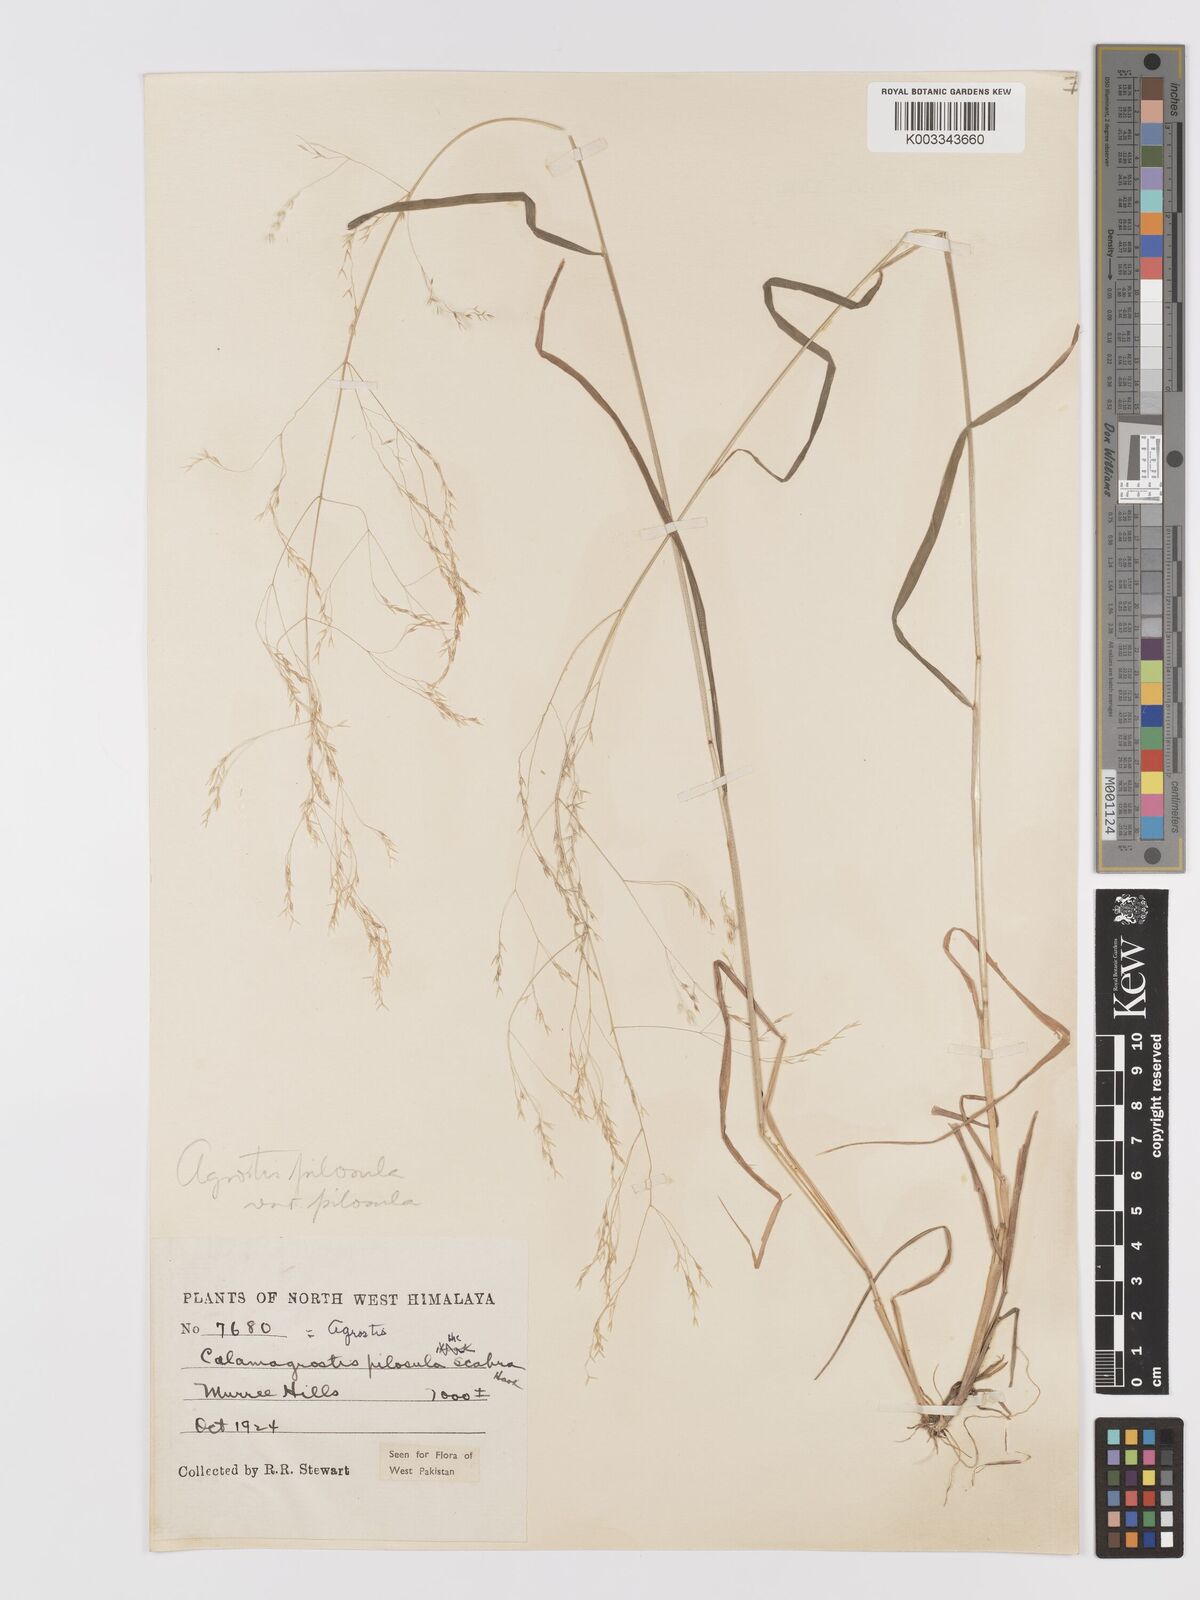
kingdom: Plantae
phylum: Tracheophyta
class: Liliopsida
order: Poales
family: Poaceae
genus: Agrostis
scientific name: Agrostis pilosula
